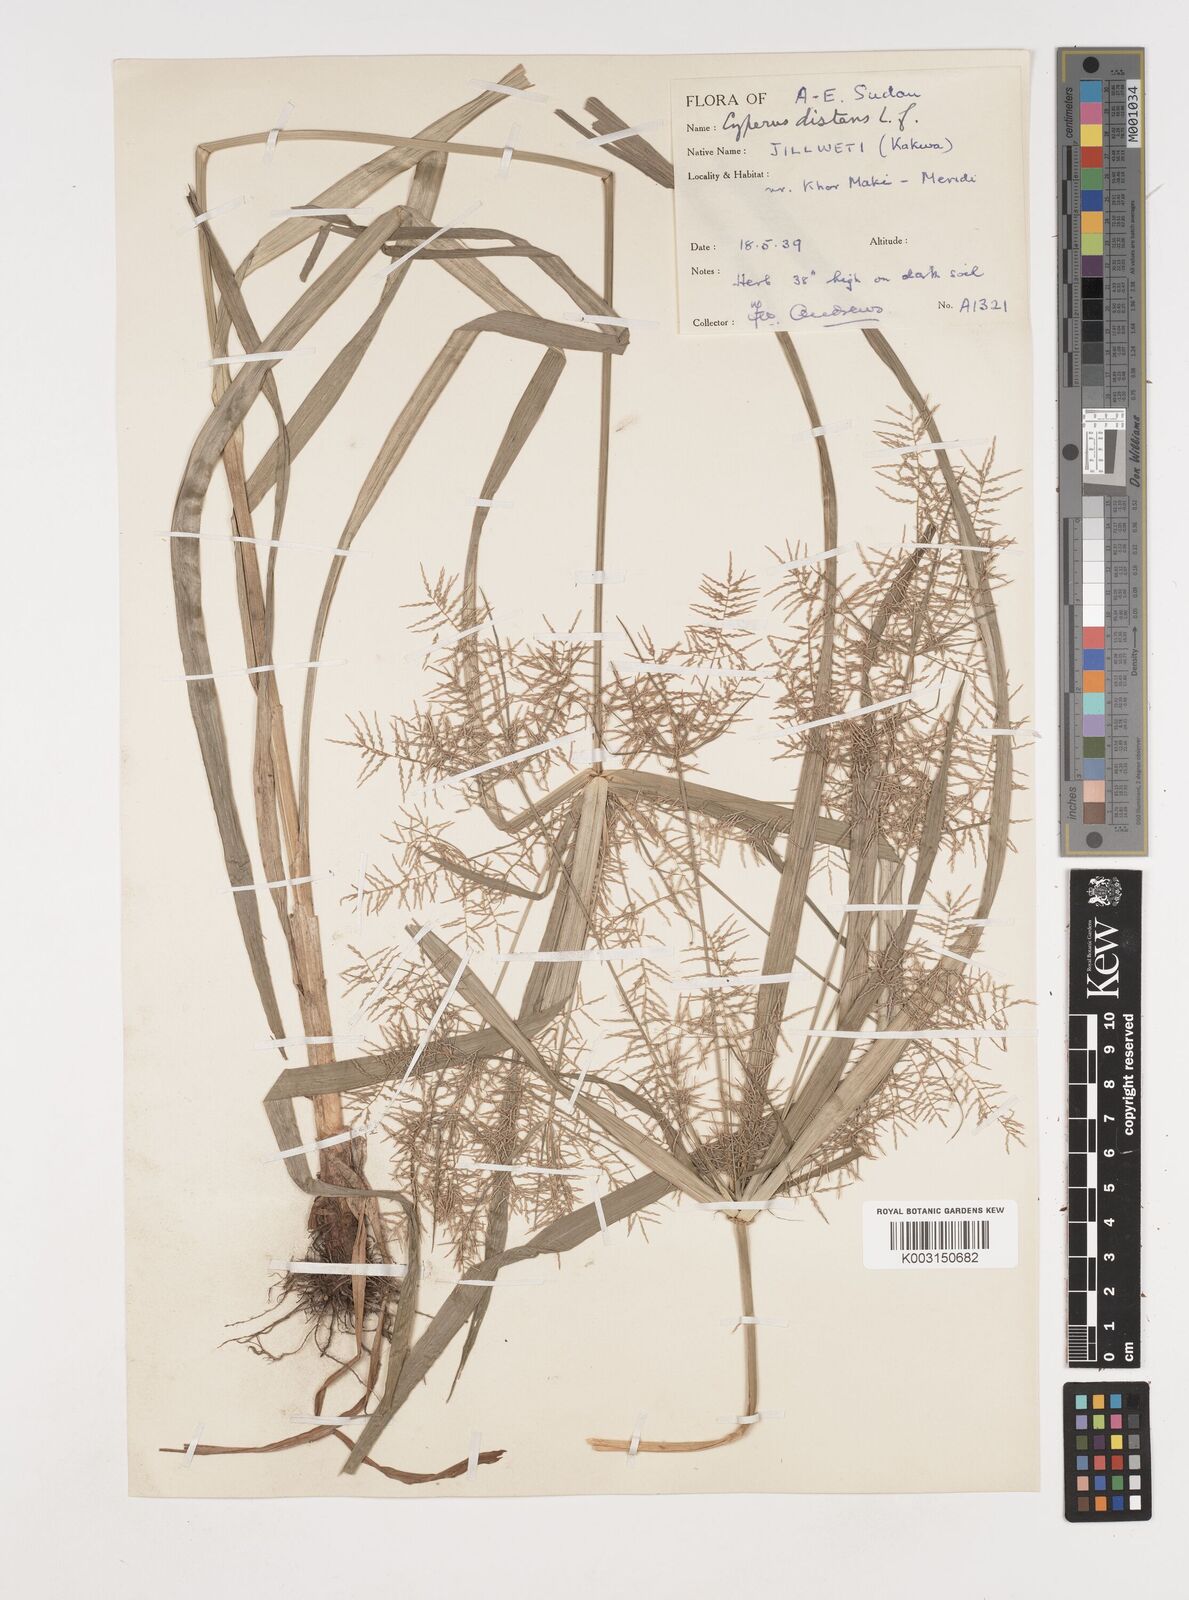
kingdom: Plantae
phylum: Tracheophyta
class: Liliopsida
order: Poales
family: Cyperaceae
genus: Cyperus
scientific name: Cyperus distans
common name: Slender cyperus
